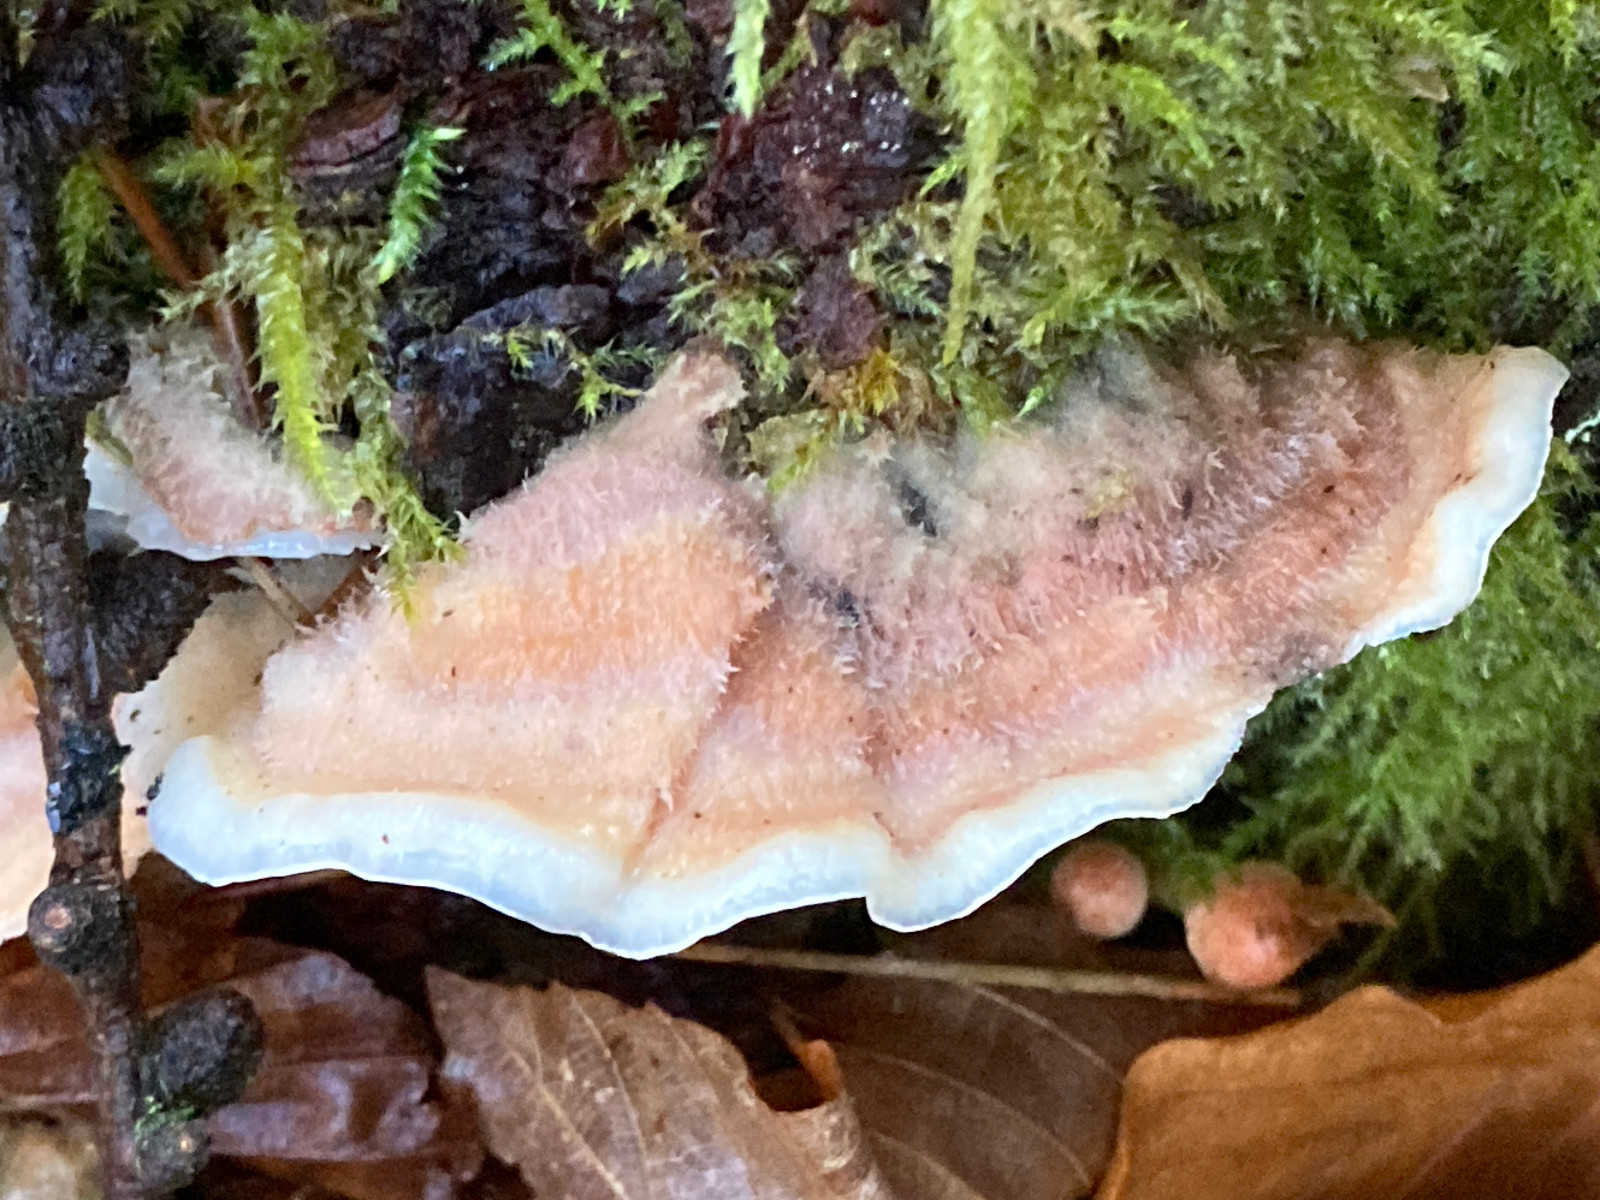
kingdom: Fungi
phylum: Basidiomycota
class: Agaricomycetes
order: Polyporales
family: Meruliaceae
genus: Phlebia
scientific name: Phlebia tremellosa
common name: bævrende åresvamp
